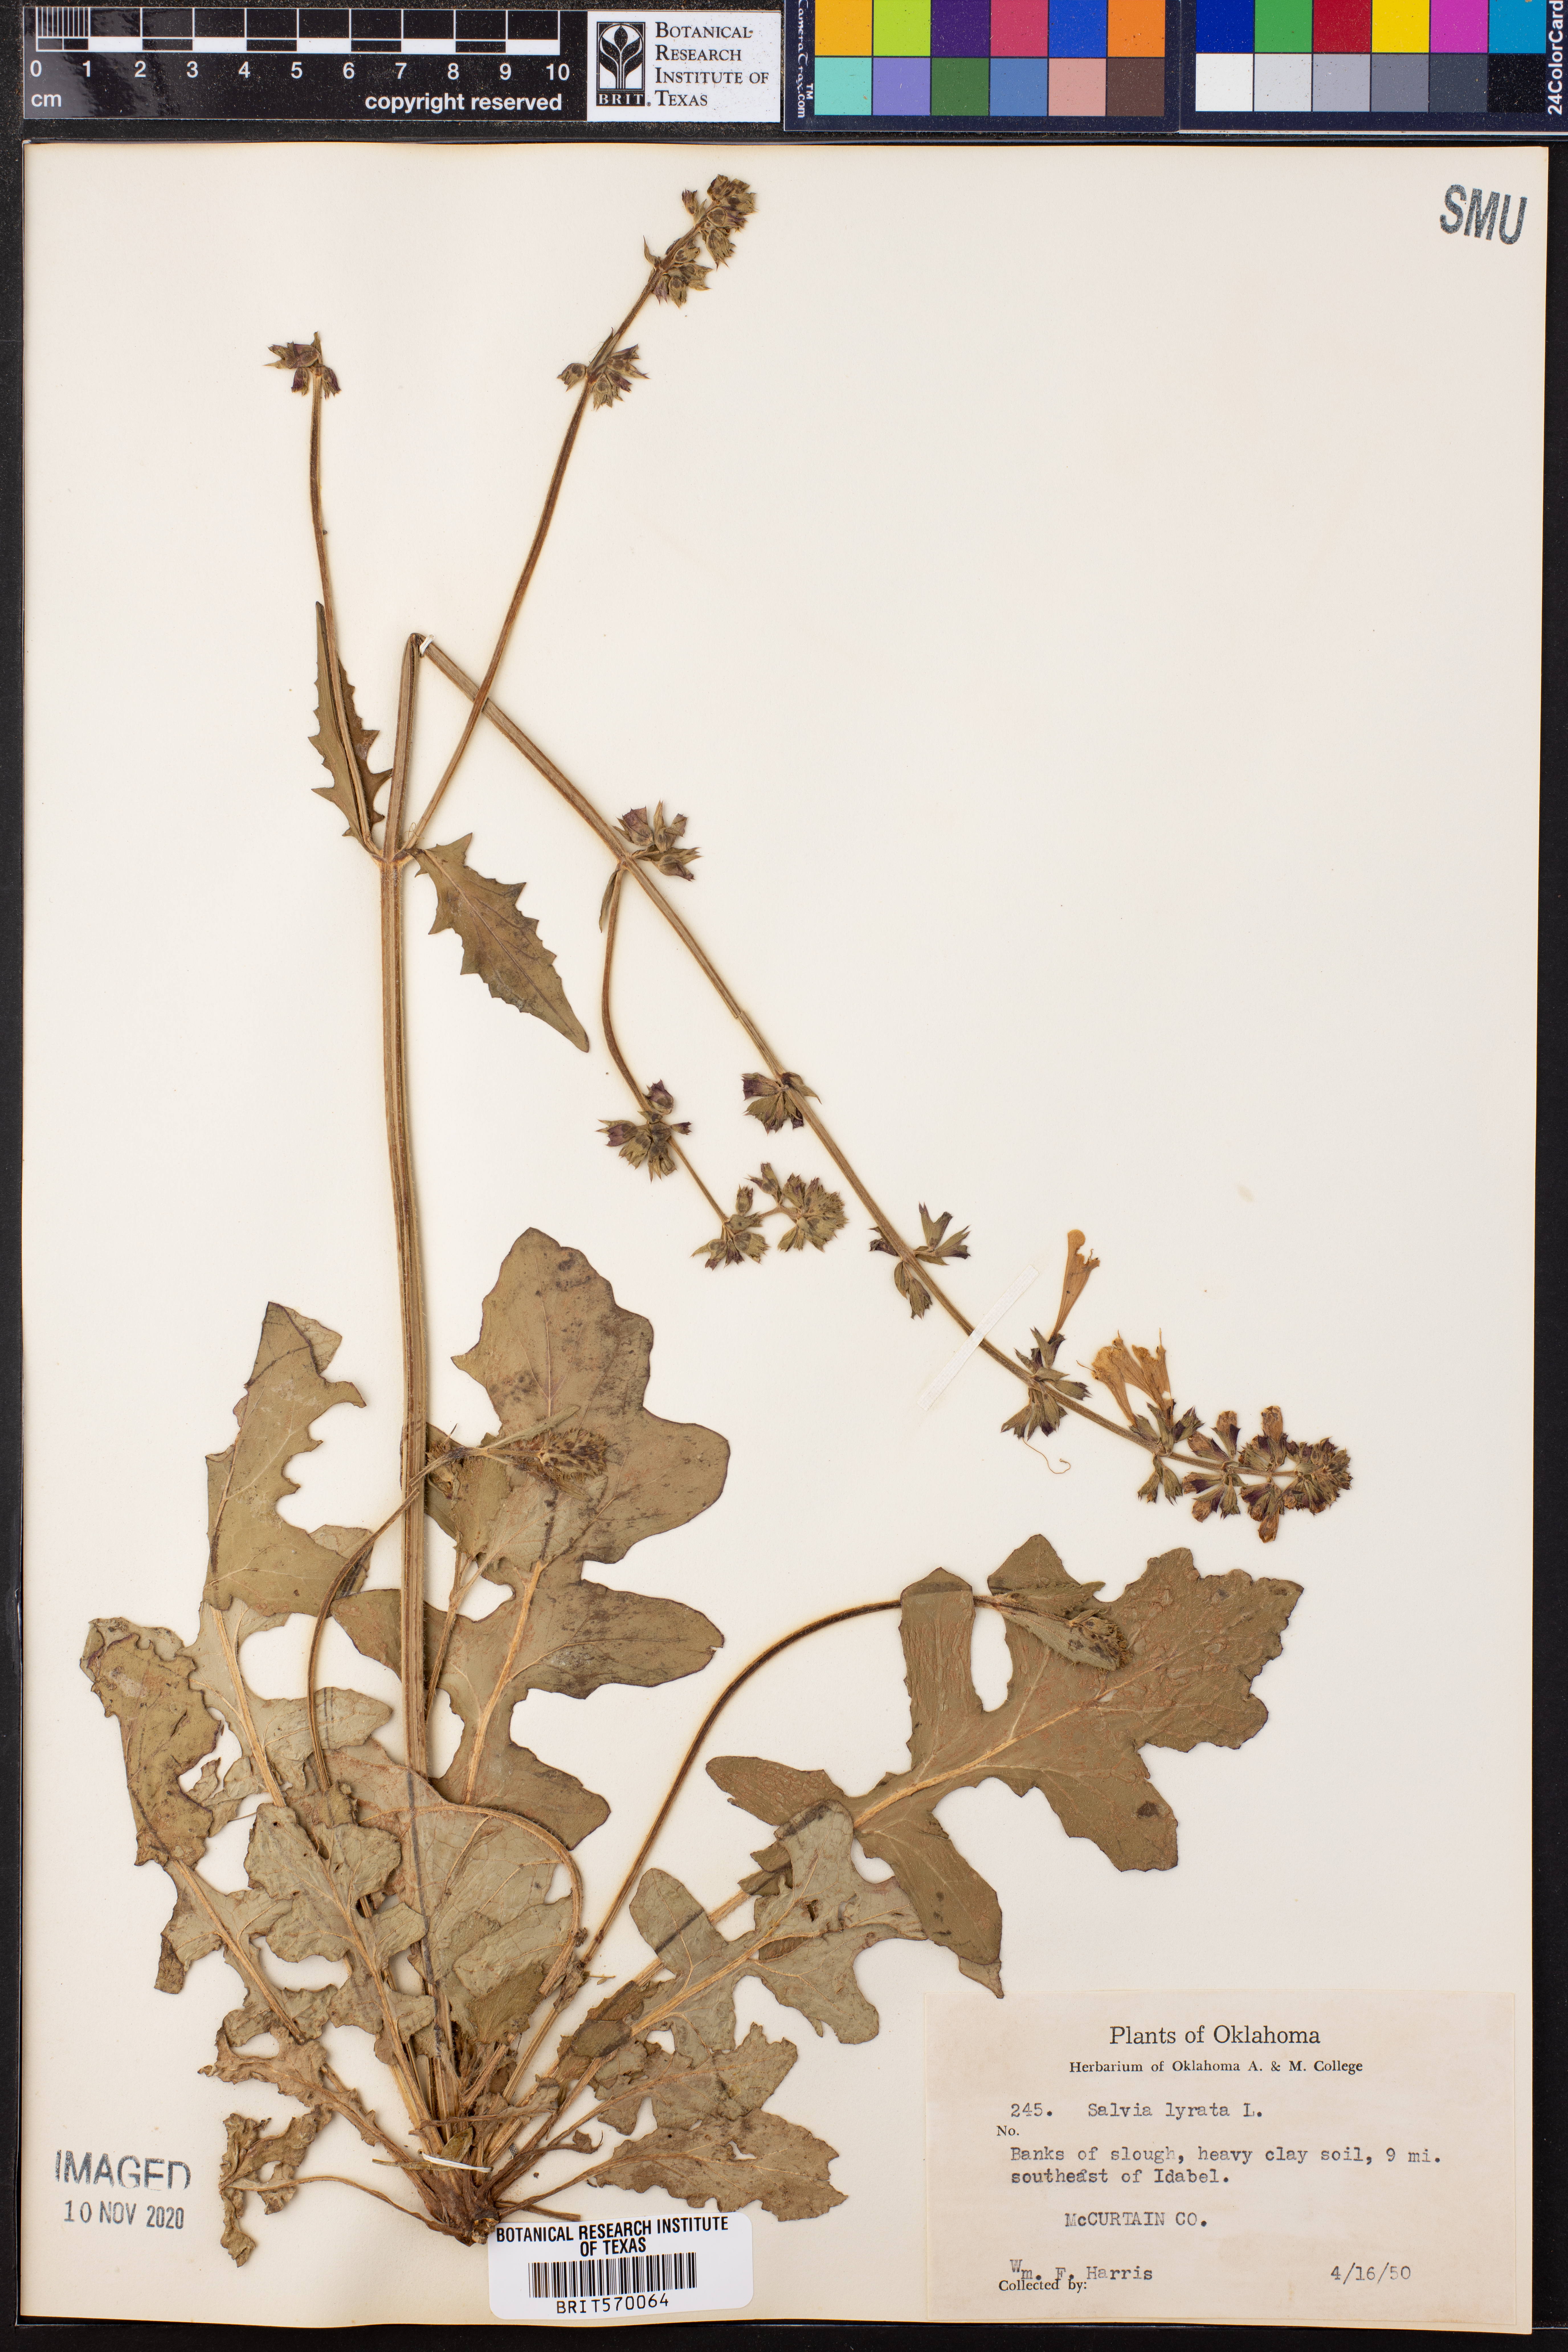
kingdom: Plantae
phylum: Tracheophyta
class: Magnoliopsida
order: Lamiales
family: Lamiaceae
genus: Salvia
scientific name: Salvia lyrata
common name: Cancerweed
